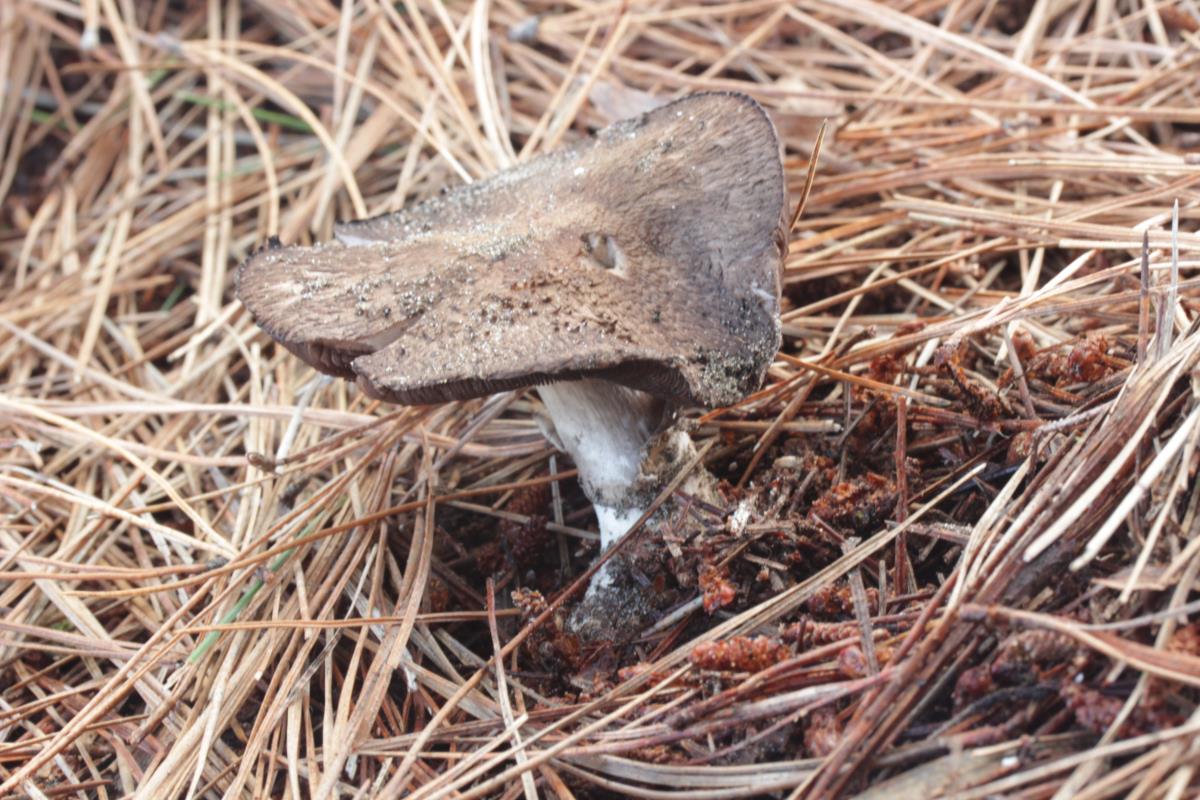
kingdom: Fungi
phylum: Basidiomycota
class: Agaricomycetes
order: Agaricales
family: Agaricaceae
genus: Agaricus
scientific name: Agaricus
